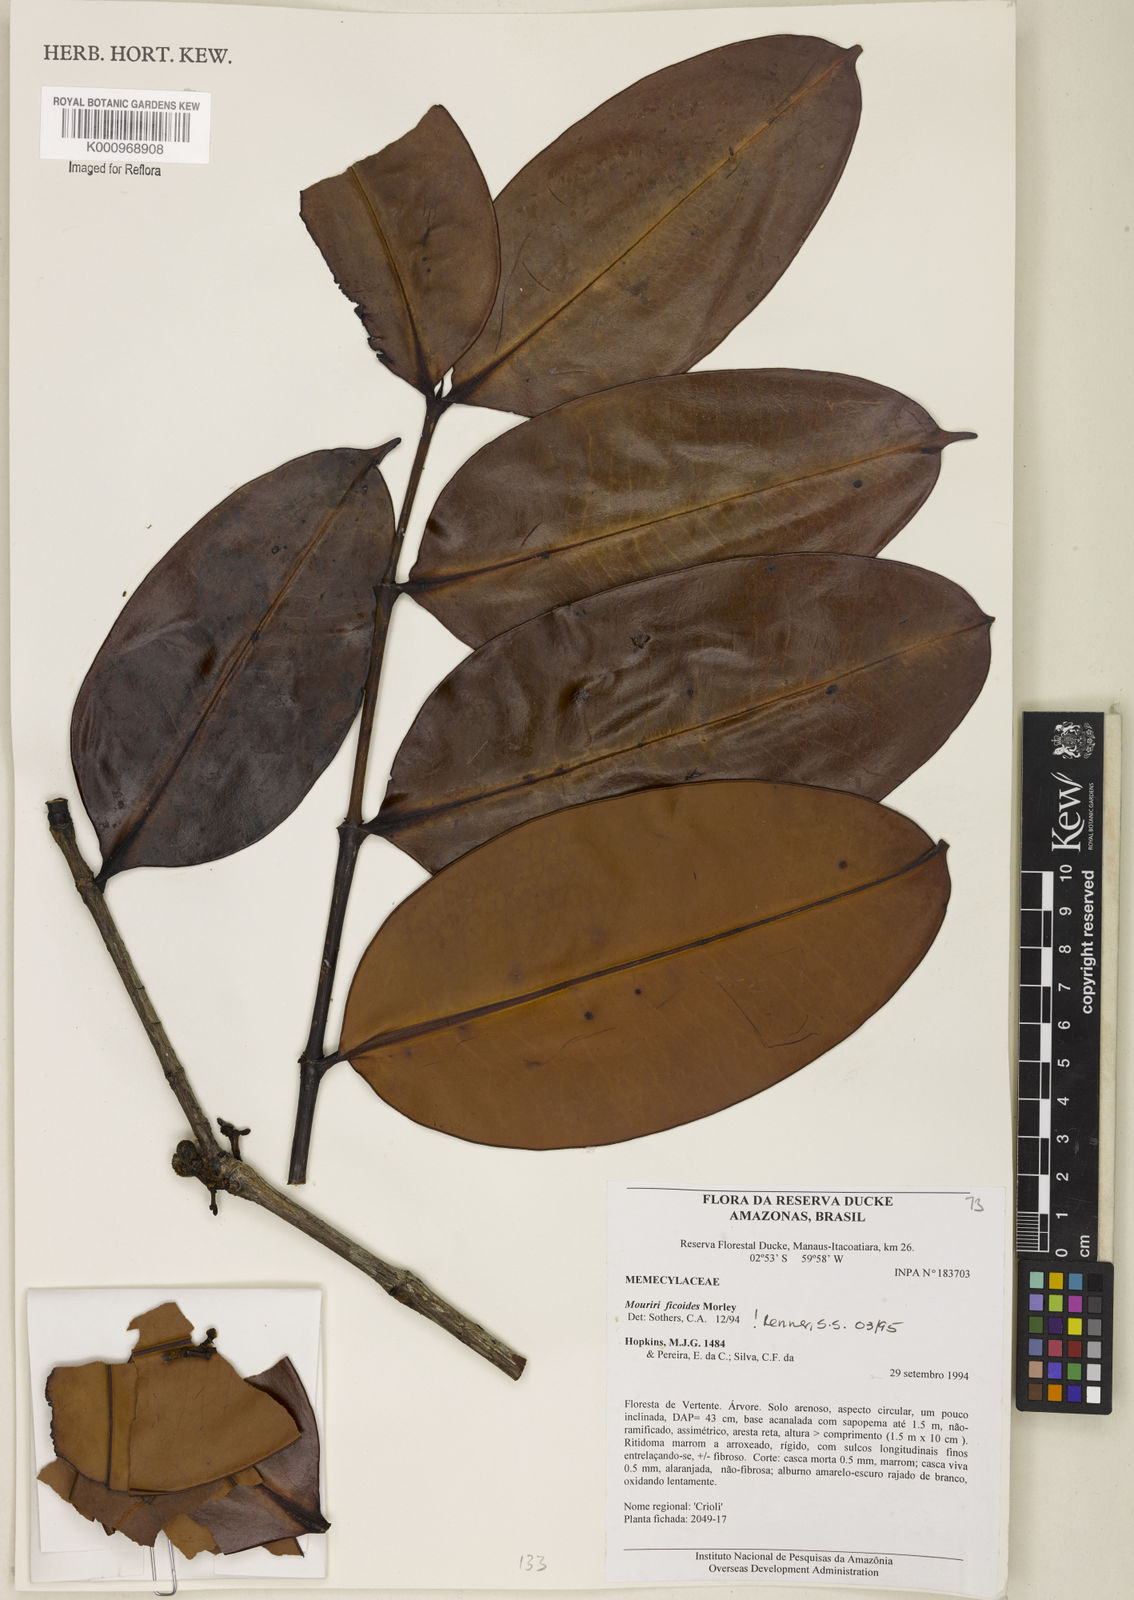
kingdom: Plantae
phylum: Tracheophyta
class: Magnoliopsida
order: Myrtales
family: Melastomataceae
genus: Mouriri
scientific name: Mouriri ficoides
